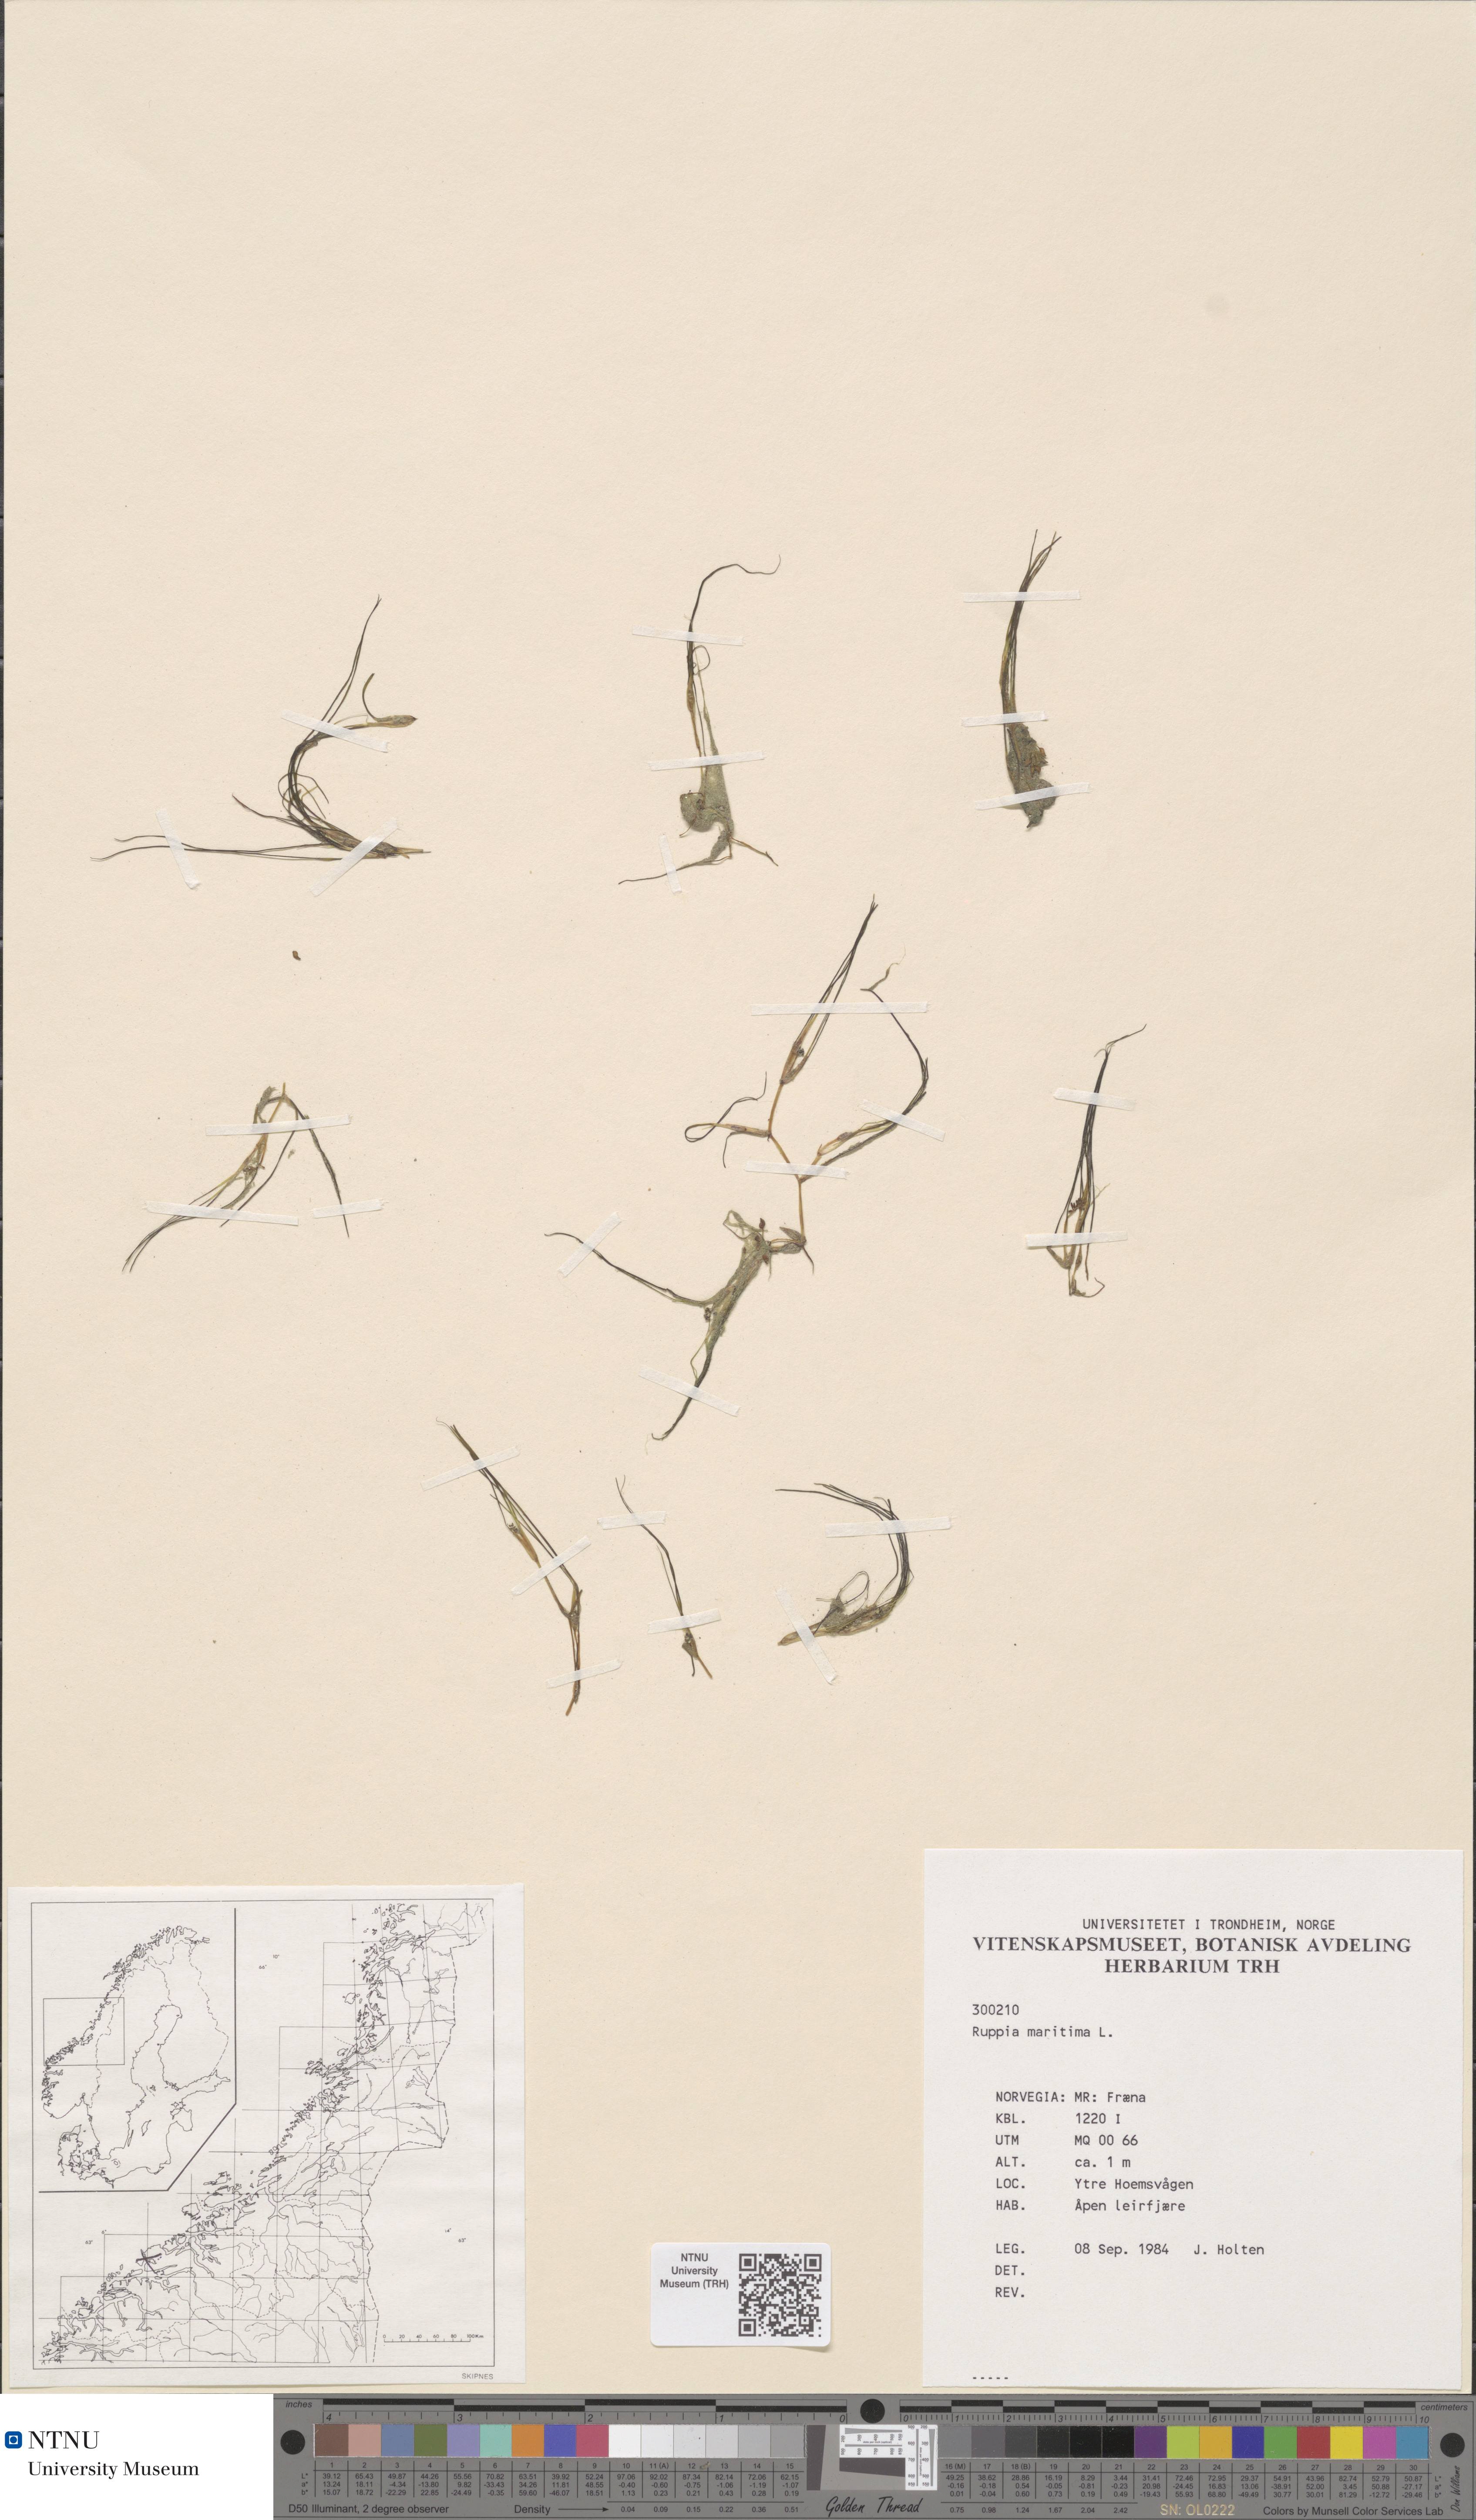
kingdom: Plantae
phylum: Tracheophyta
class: Liliopsida
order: Alismatales
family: Ruppiaceae
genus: Ruppia
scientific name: Ruppia maritima
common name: Beaked tasselweed
